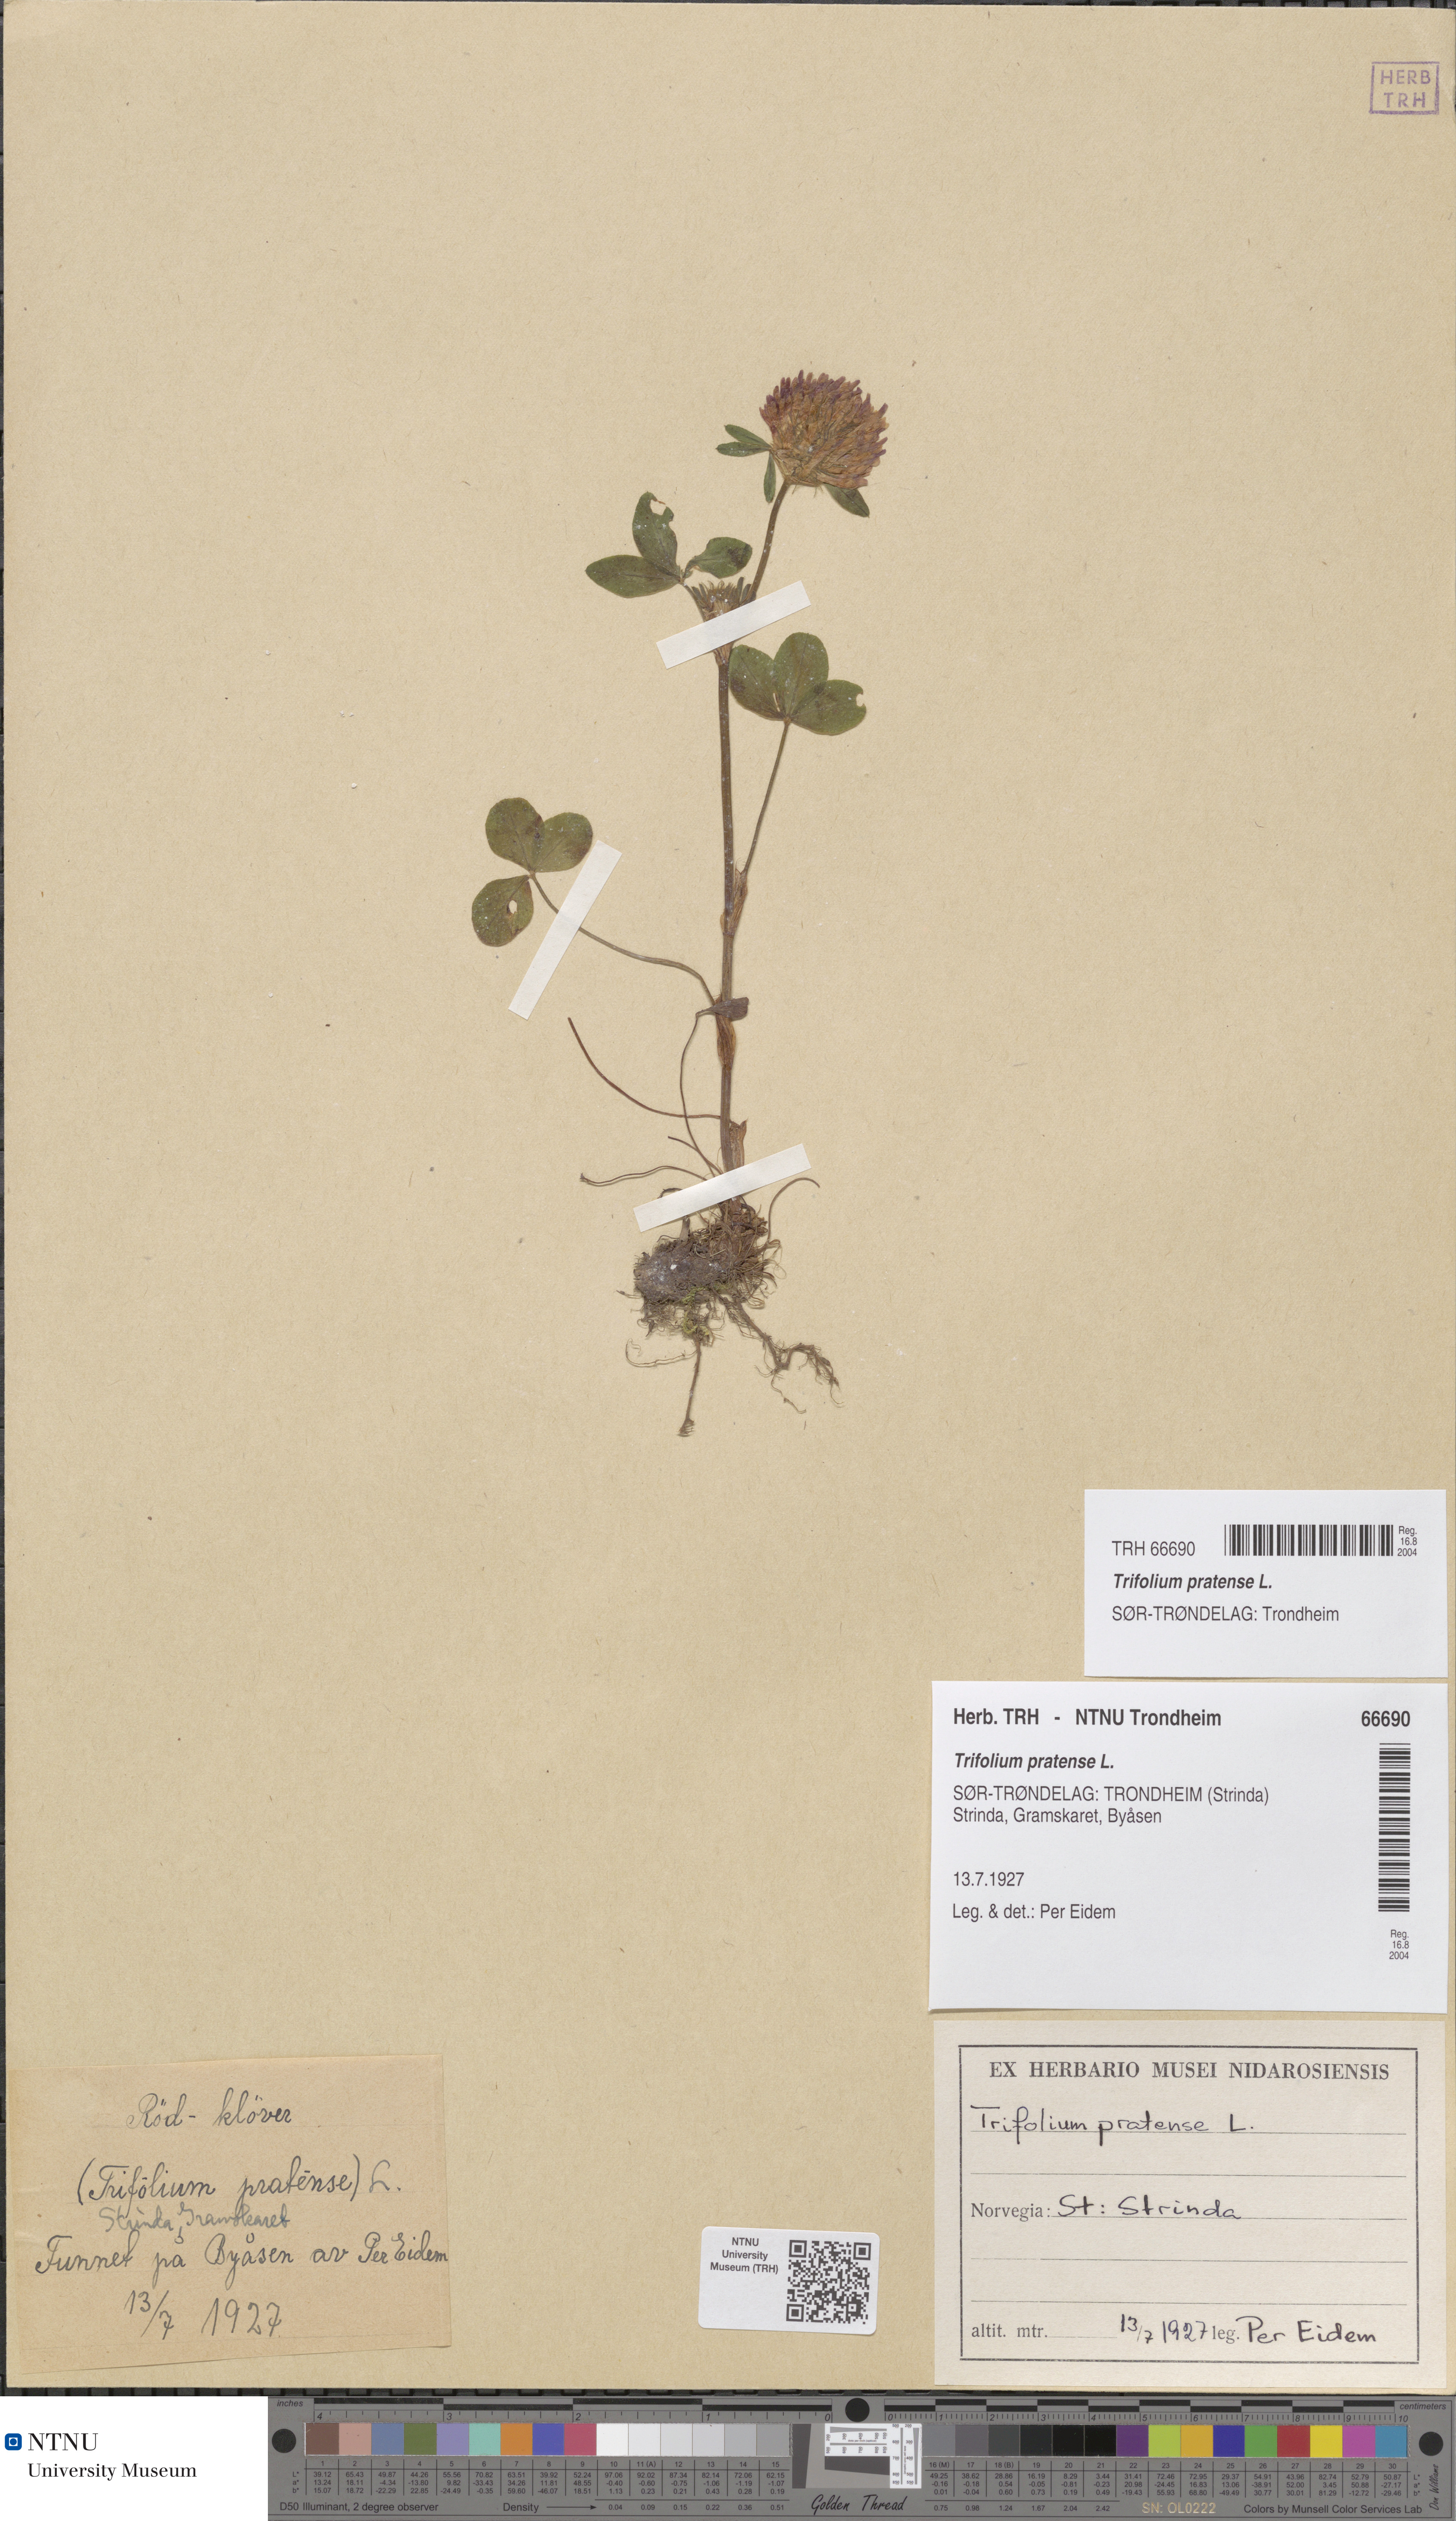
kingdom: Plantae
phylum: Tracheophyta
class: Magnoliopsida
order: Fabales
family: Fabaceae
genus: Trifolium
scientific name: Trifolium pratense
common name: Red clover
